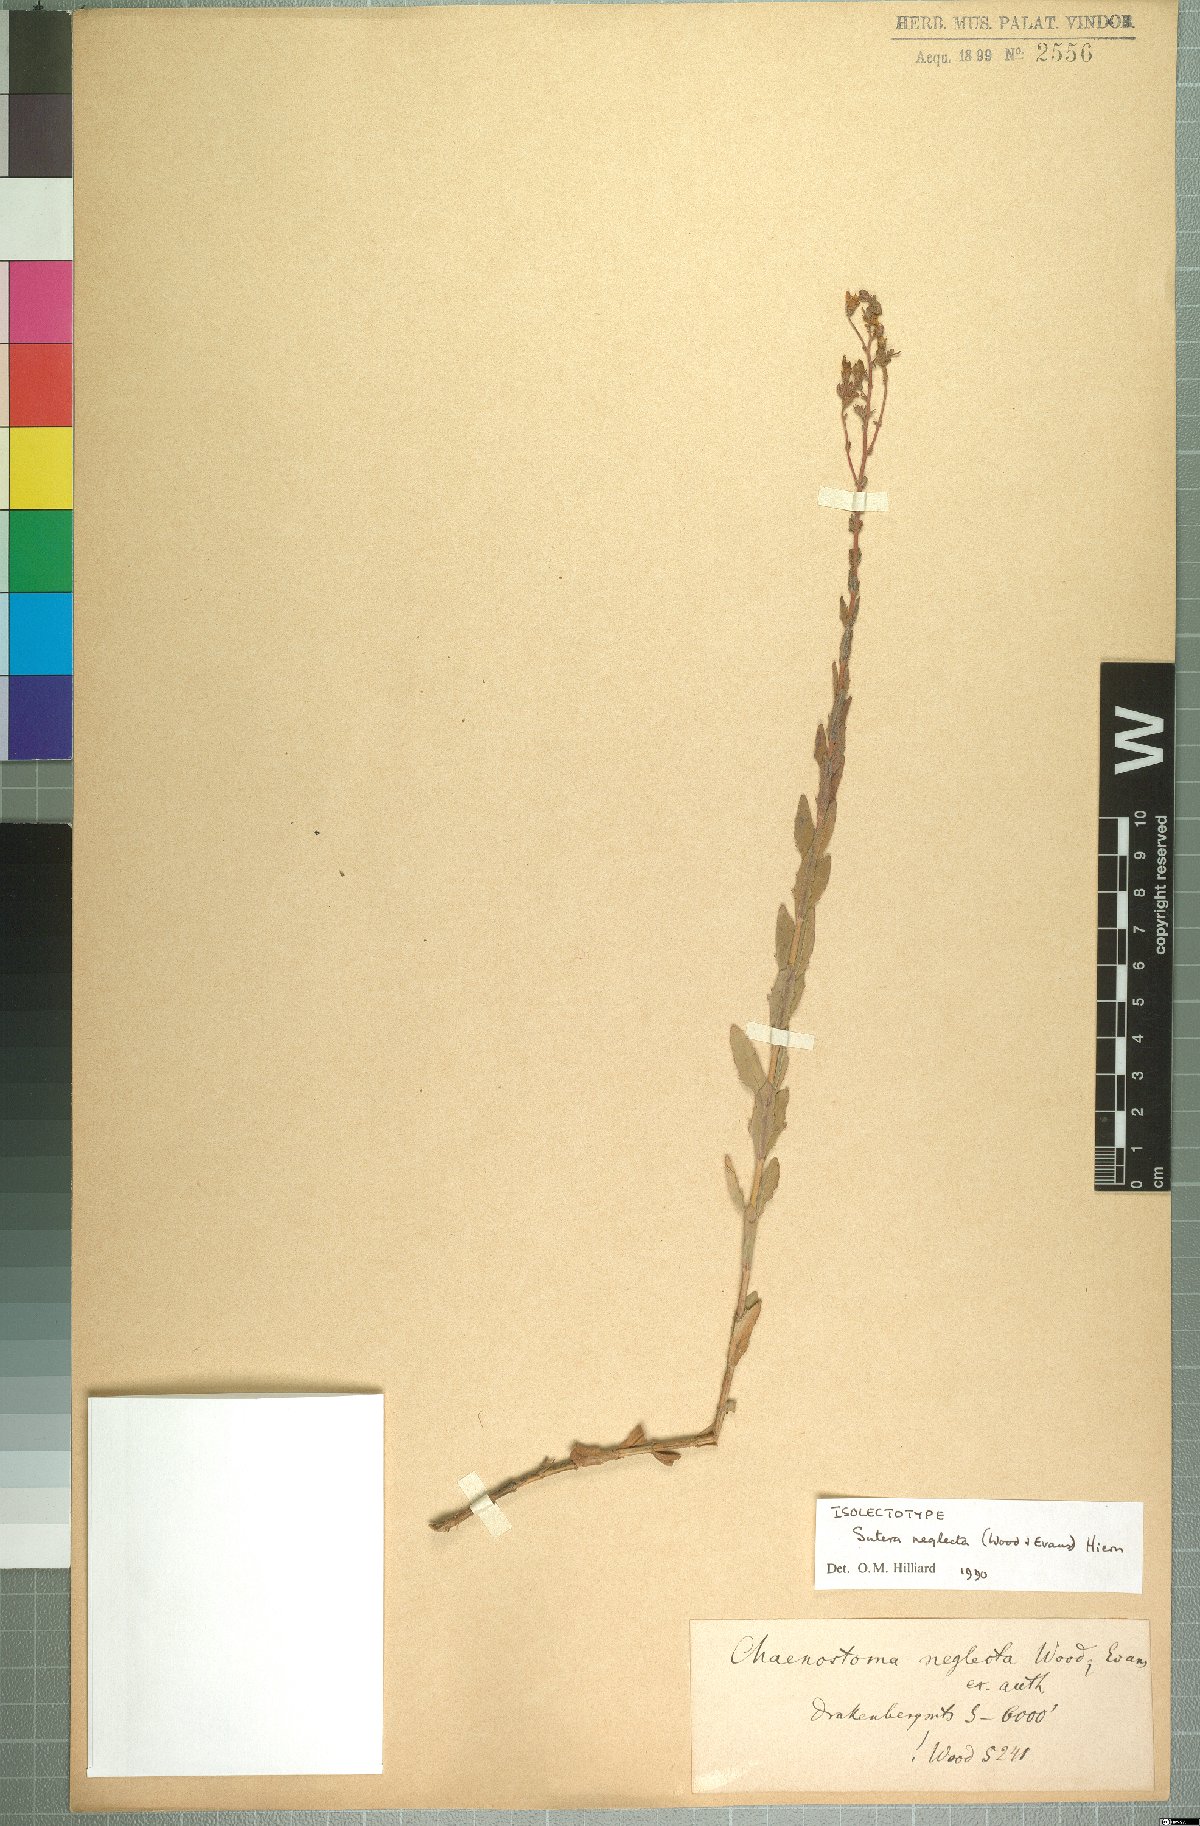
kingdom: Plantae
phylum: Tracheophyta
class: Magnoliopsida
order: Lamiales
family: Scrophulariaceae
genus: Chaenostoma
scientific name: Chaenostoma neglectum
